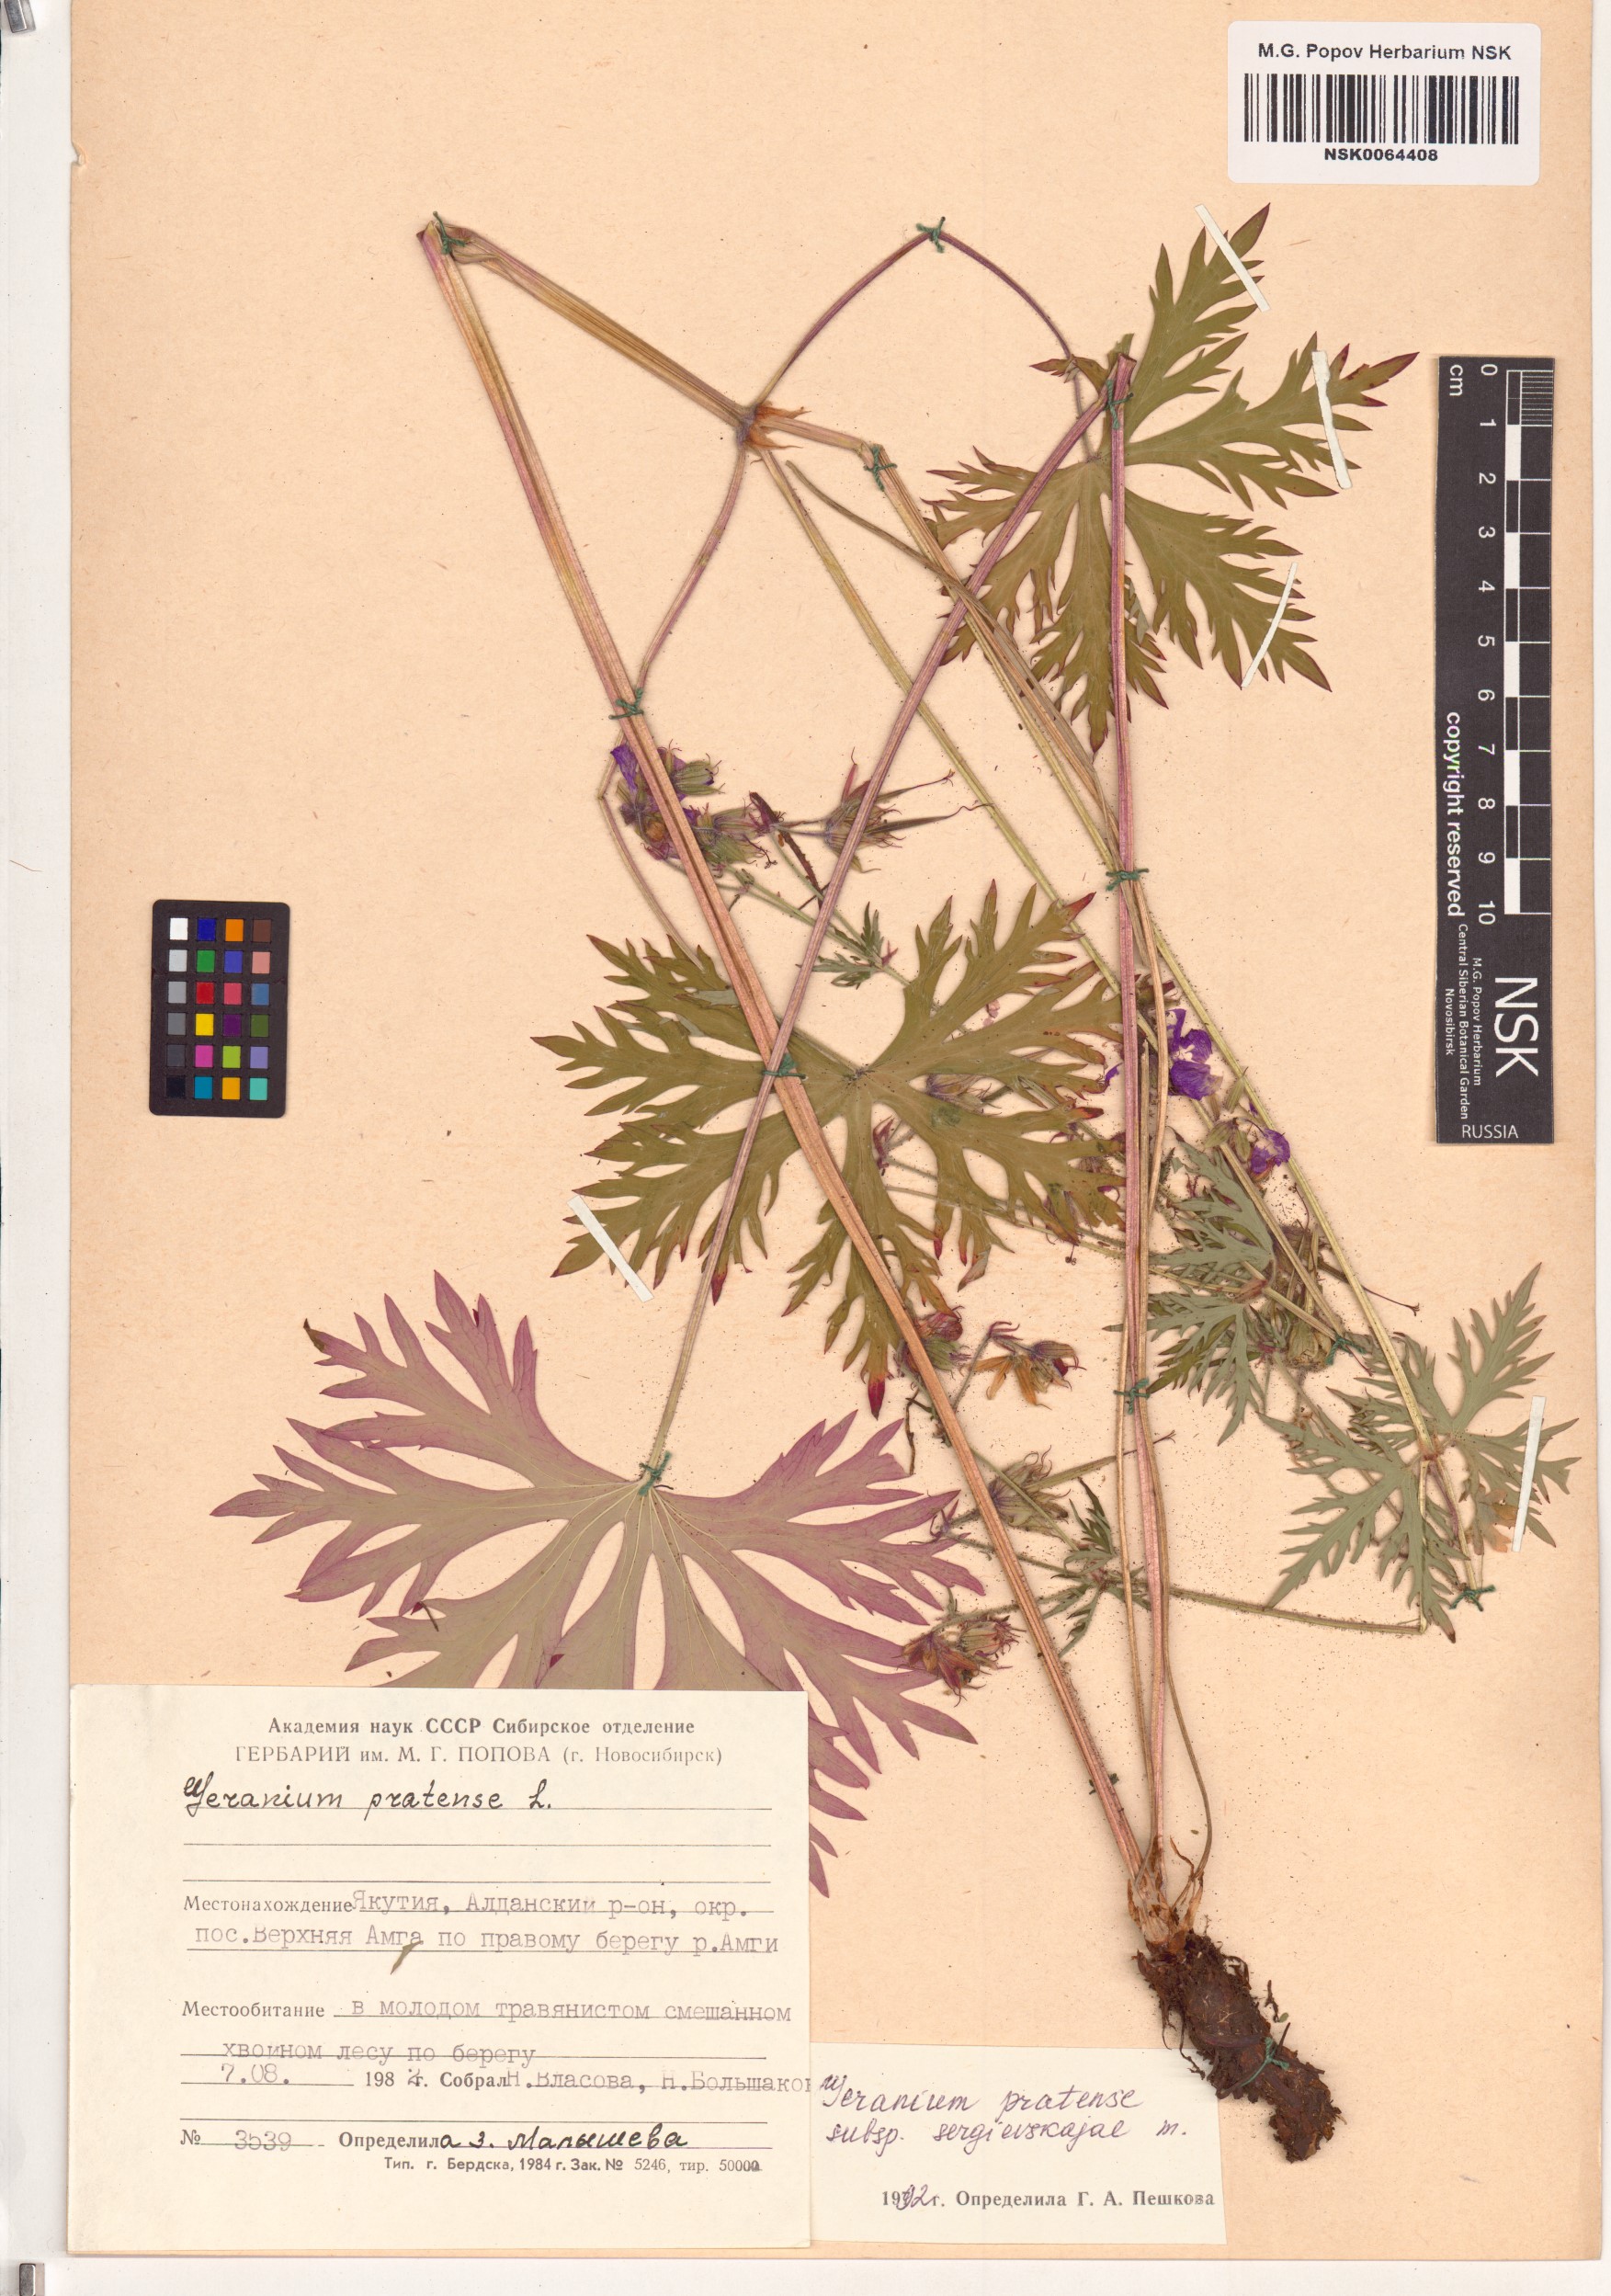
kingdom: Plantae
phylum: Tracheophyta
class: Magnoliopsida
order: Geraniales
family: Geraniaceae
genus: Geranium
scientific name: Geranium pratense
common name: Meadow crane's-bill
